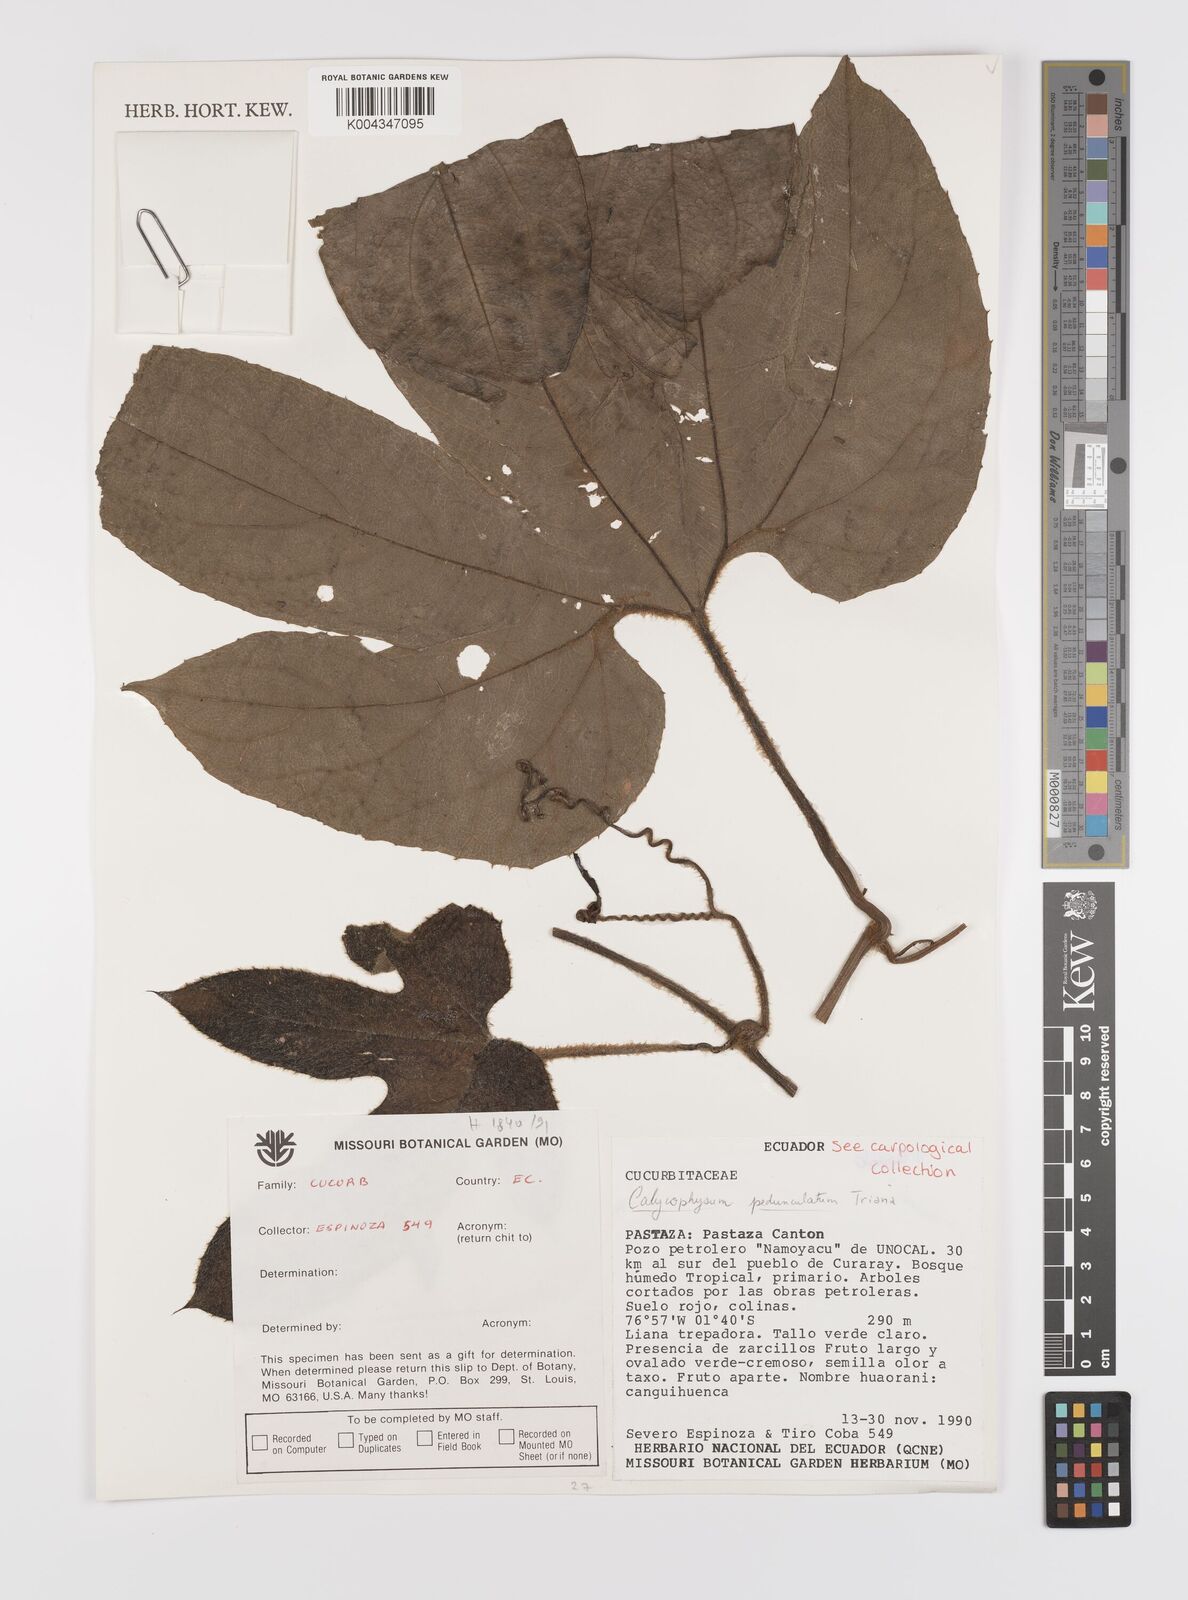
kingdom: Plantae
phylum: Tracheophyta
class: Magnoliopsida
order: Cucurbitales
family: Cucurbitaceae
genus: Calycophysum
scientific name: Calycophysum pedunculatum
